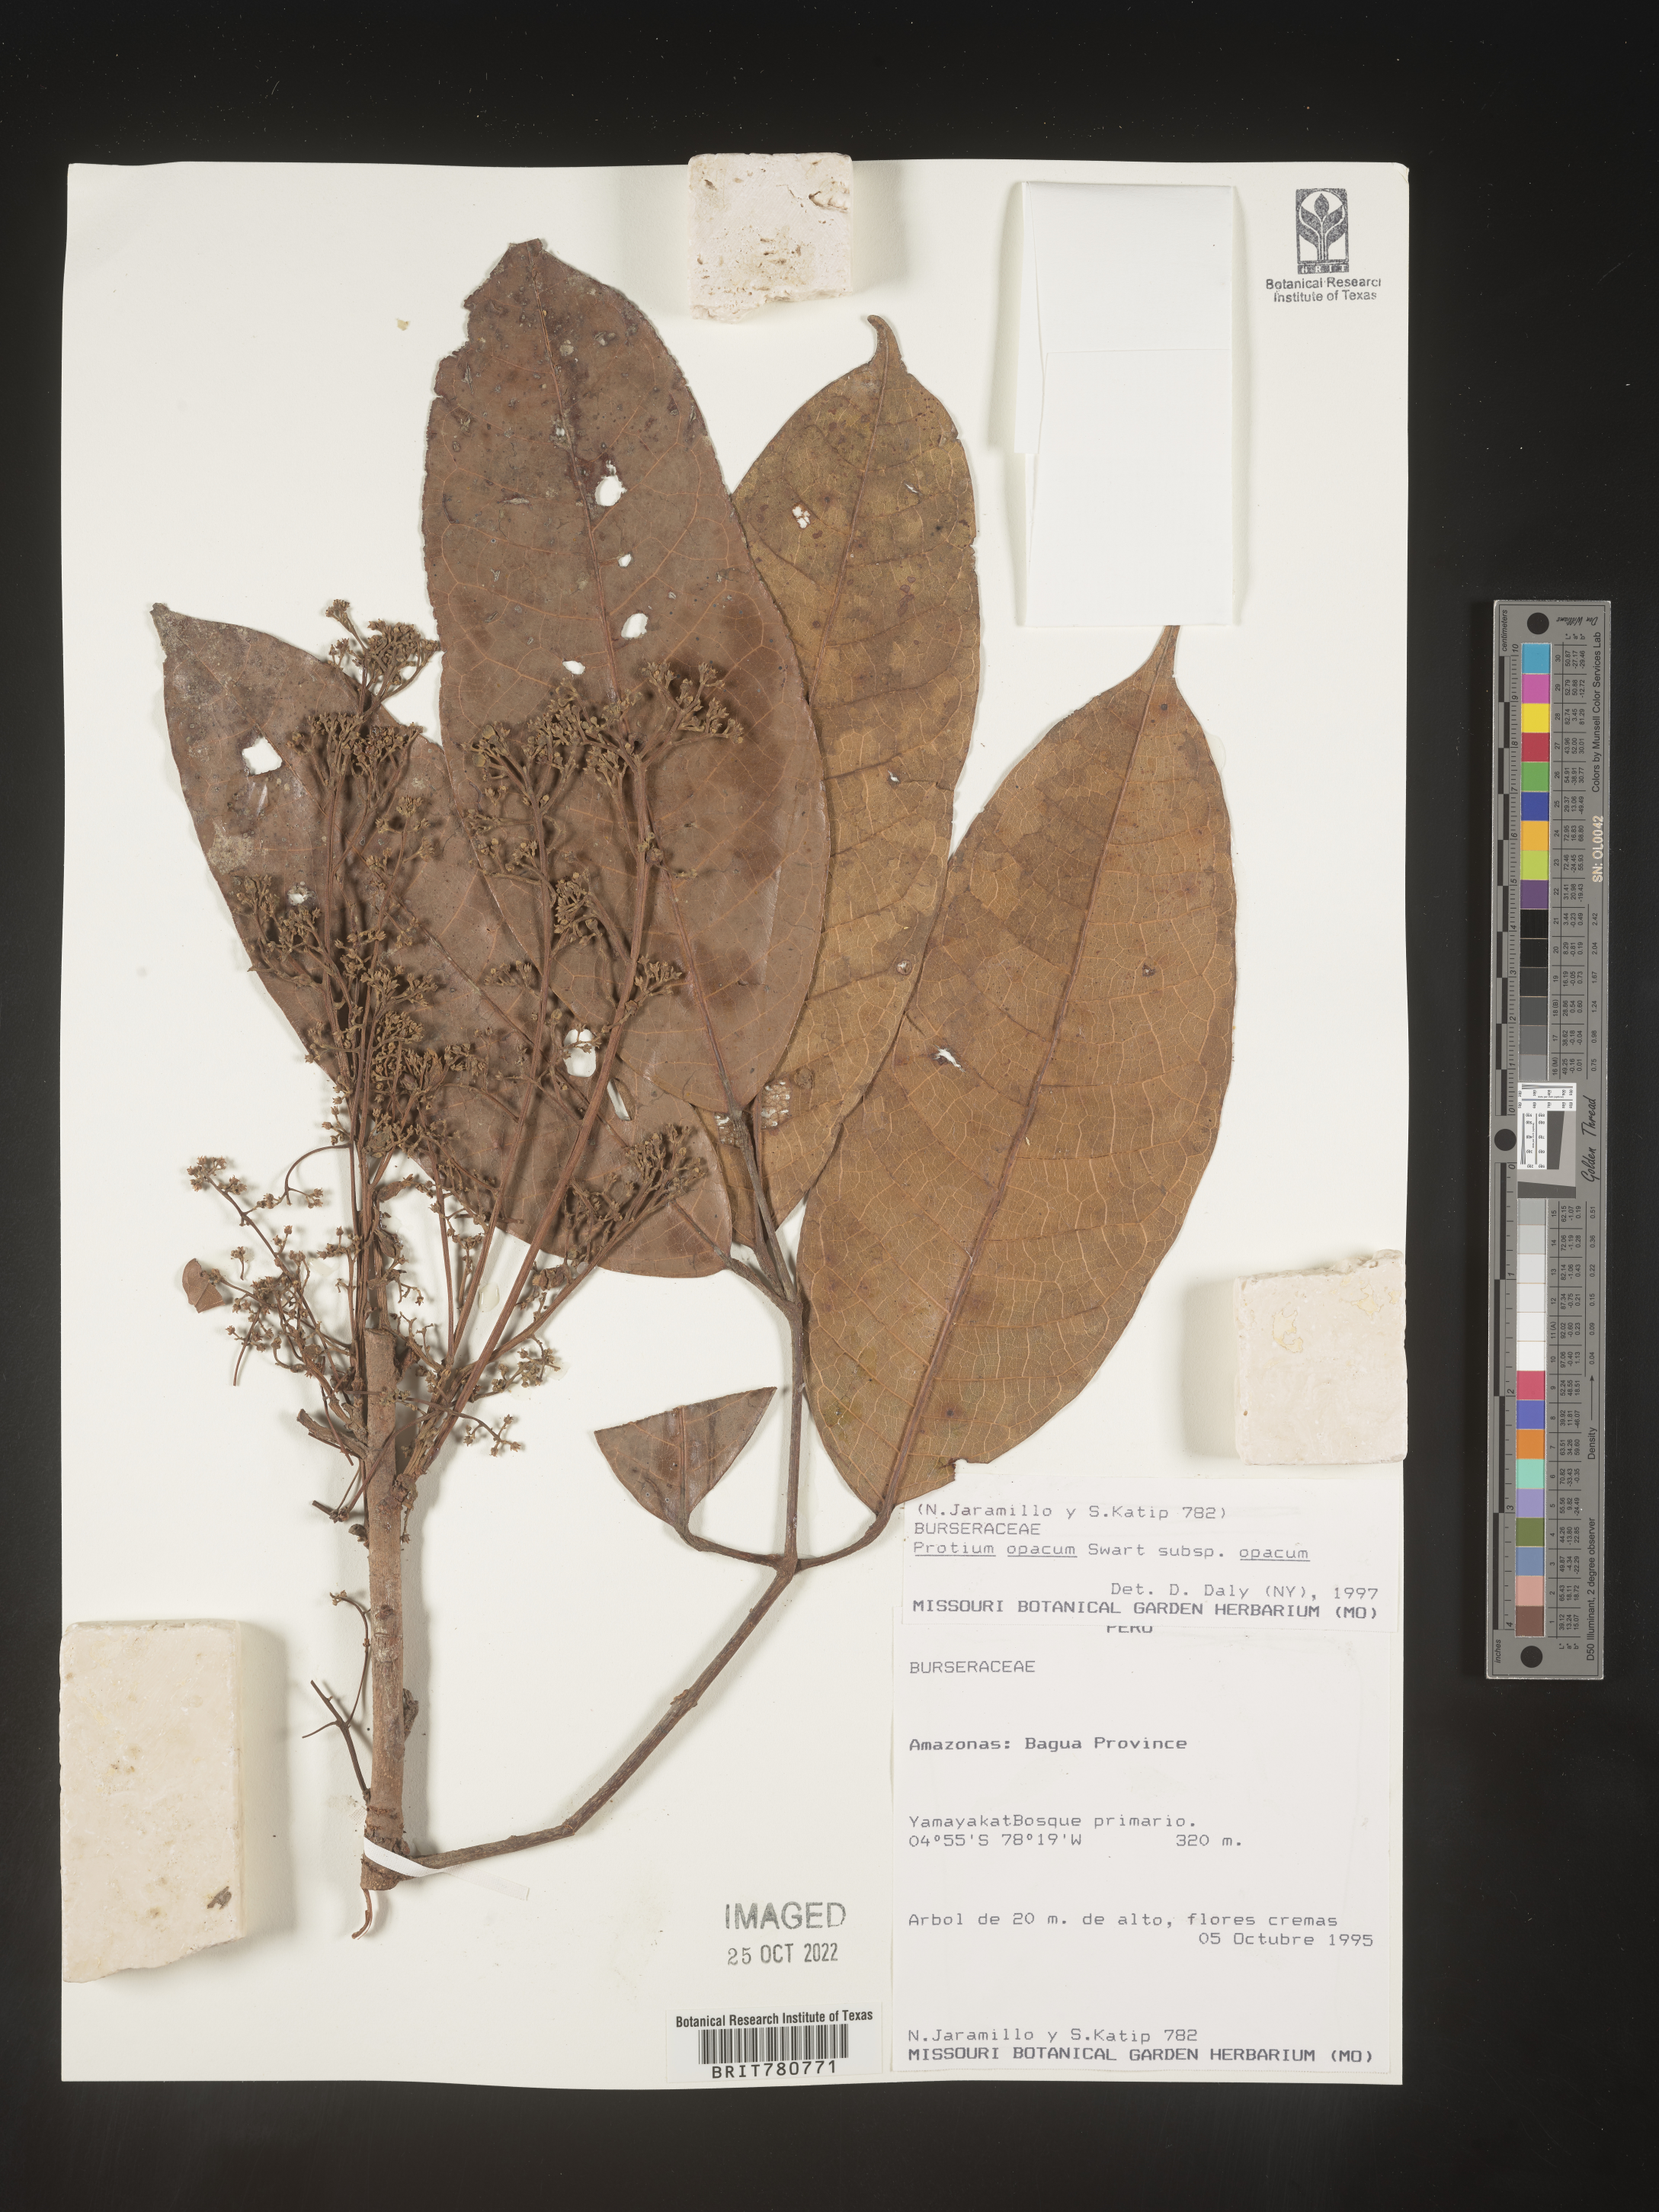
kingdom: Plantae
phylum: Tracheophyta
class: Magnoliopsida
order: Sapindales
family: Burseraceae
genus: Protium
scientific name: Protium opacum
